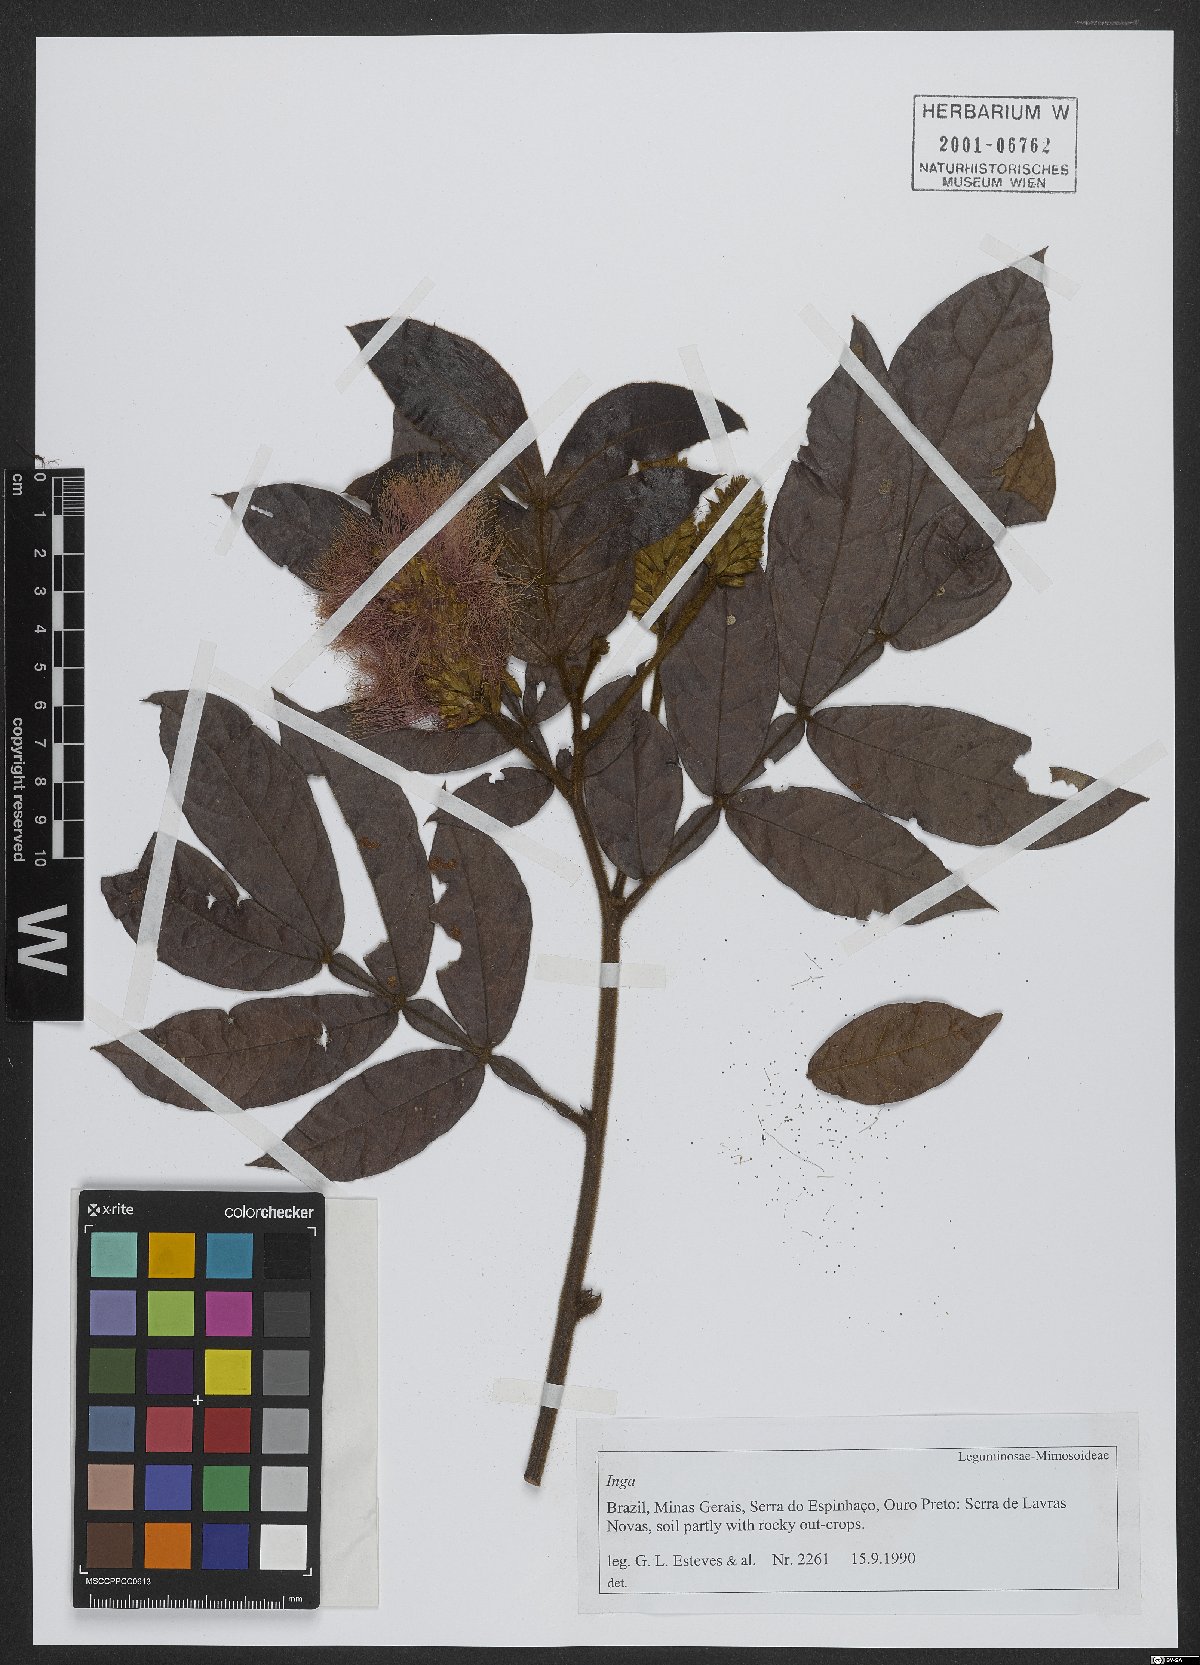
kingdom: Plantae
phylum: Tracheophyta
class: Magnoliopsida
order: Fabales
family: Fabaceae
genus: Inga
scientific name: Inga
